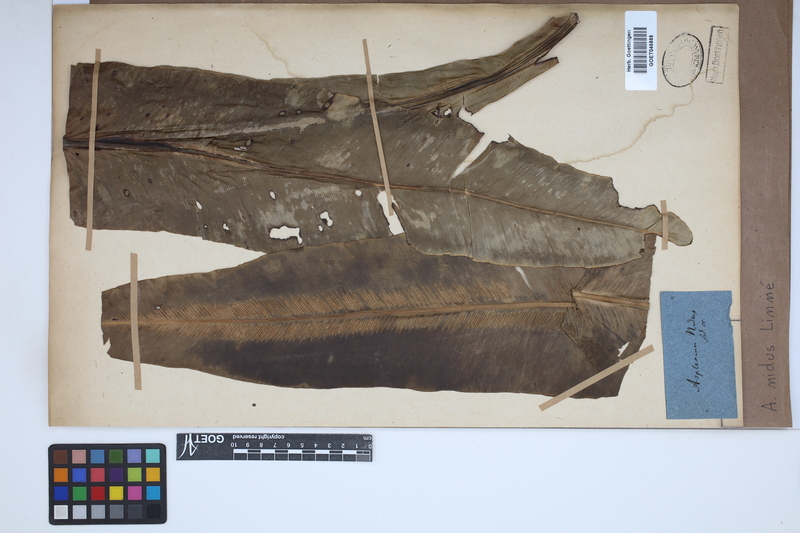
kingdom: Plantae
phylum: Tracheophyta
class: Polypodiopsida
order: Polypodiales
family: Aspleniaceae
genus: Asplenium
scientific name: Asplenium nidus
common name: Bird's-nest fern
